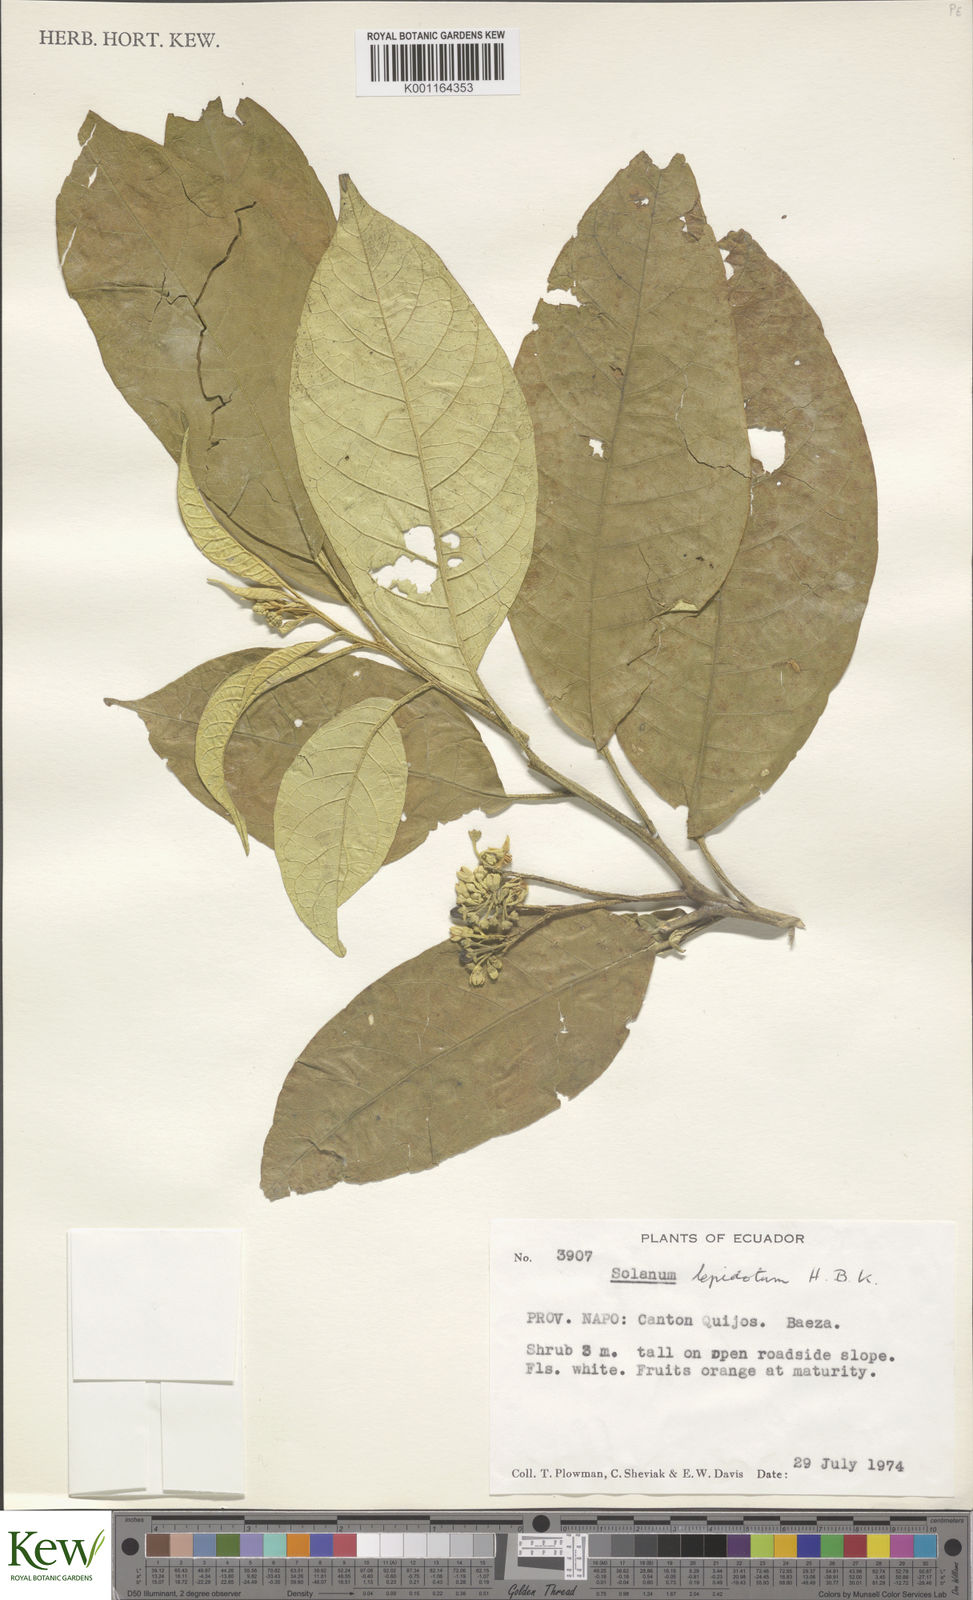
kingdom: Plantae
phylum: Tracheophyta
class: Magnoliopsida
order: Solanales
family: Solanaceae
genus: Solanum
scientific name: Solanum lepidotum
